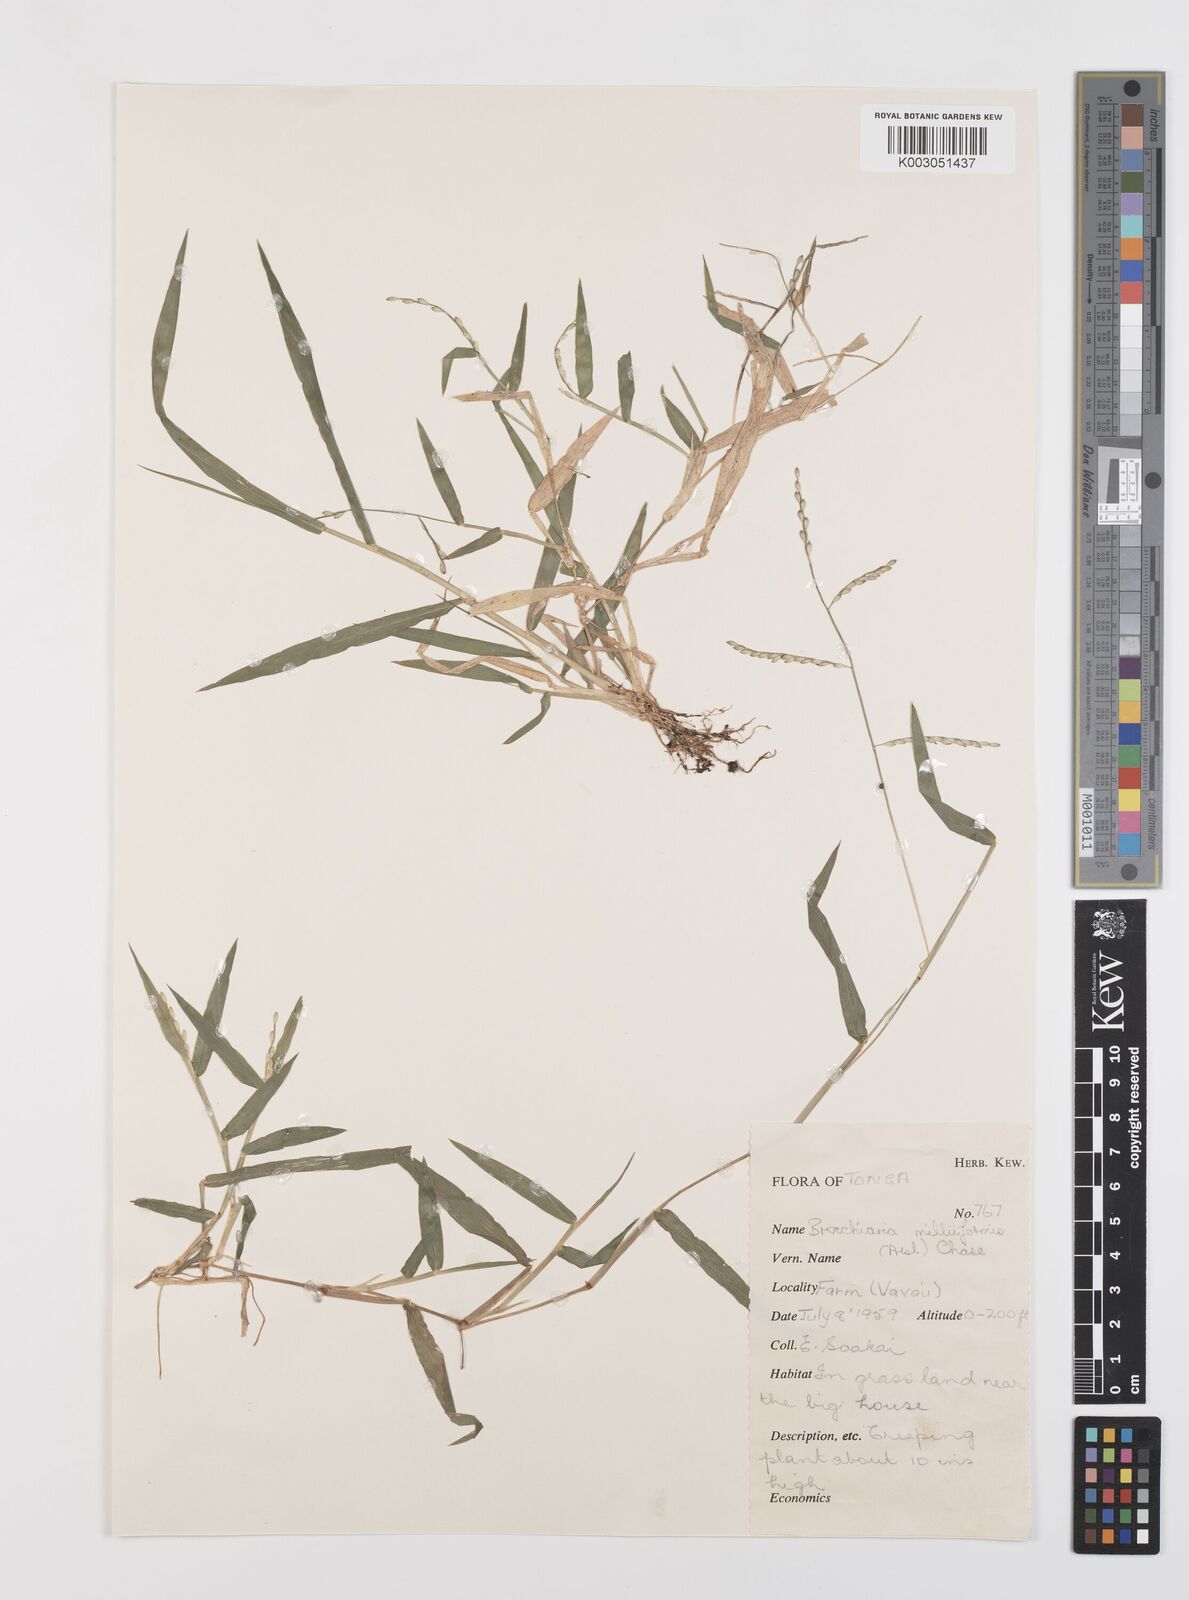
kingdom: Plantae
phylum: Tracheophyta
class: Liliopsida
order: Poales
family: Poaceae
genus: Urochloa
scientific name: Urochloa subquadripara
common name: Armgrass millet
